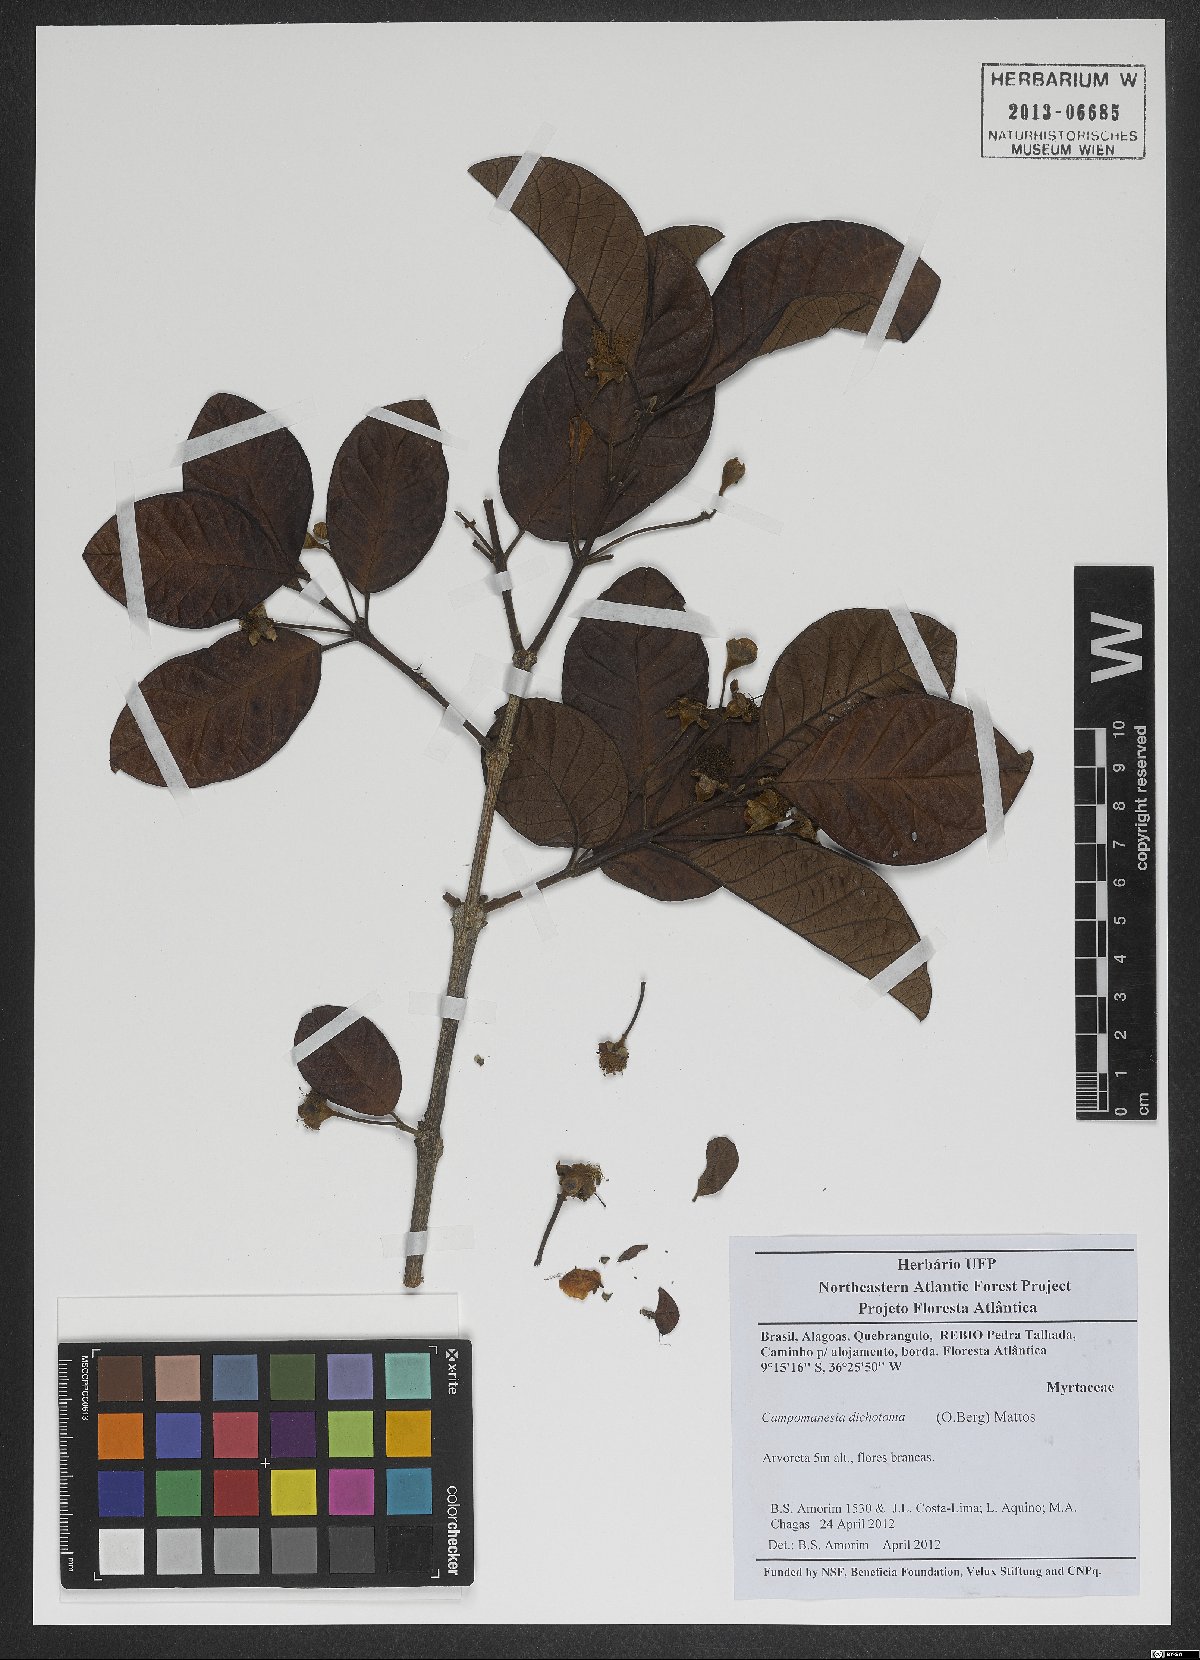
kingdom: Plantae
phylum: Tracheophyta
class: Magnoliopsida
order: Myrtales
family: Myrtaceae
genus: Campomanesia
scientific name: Campomanesia dichotoma
